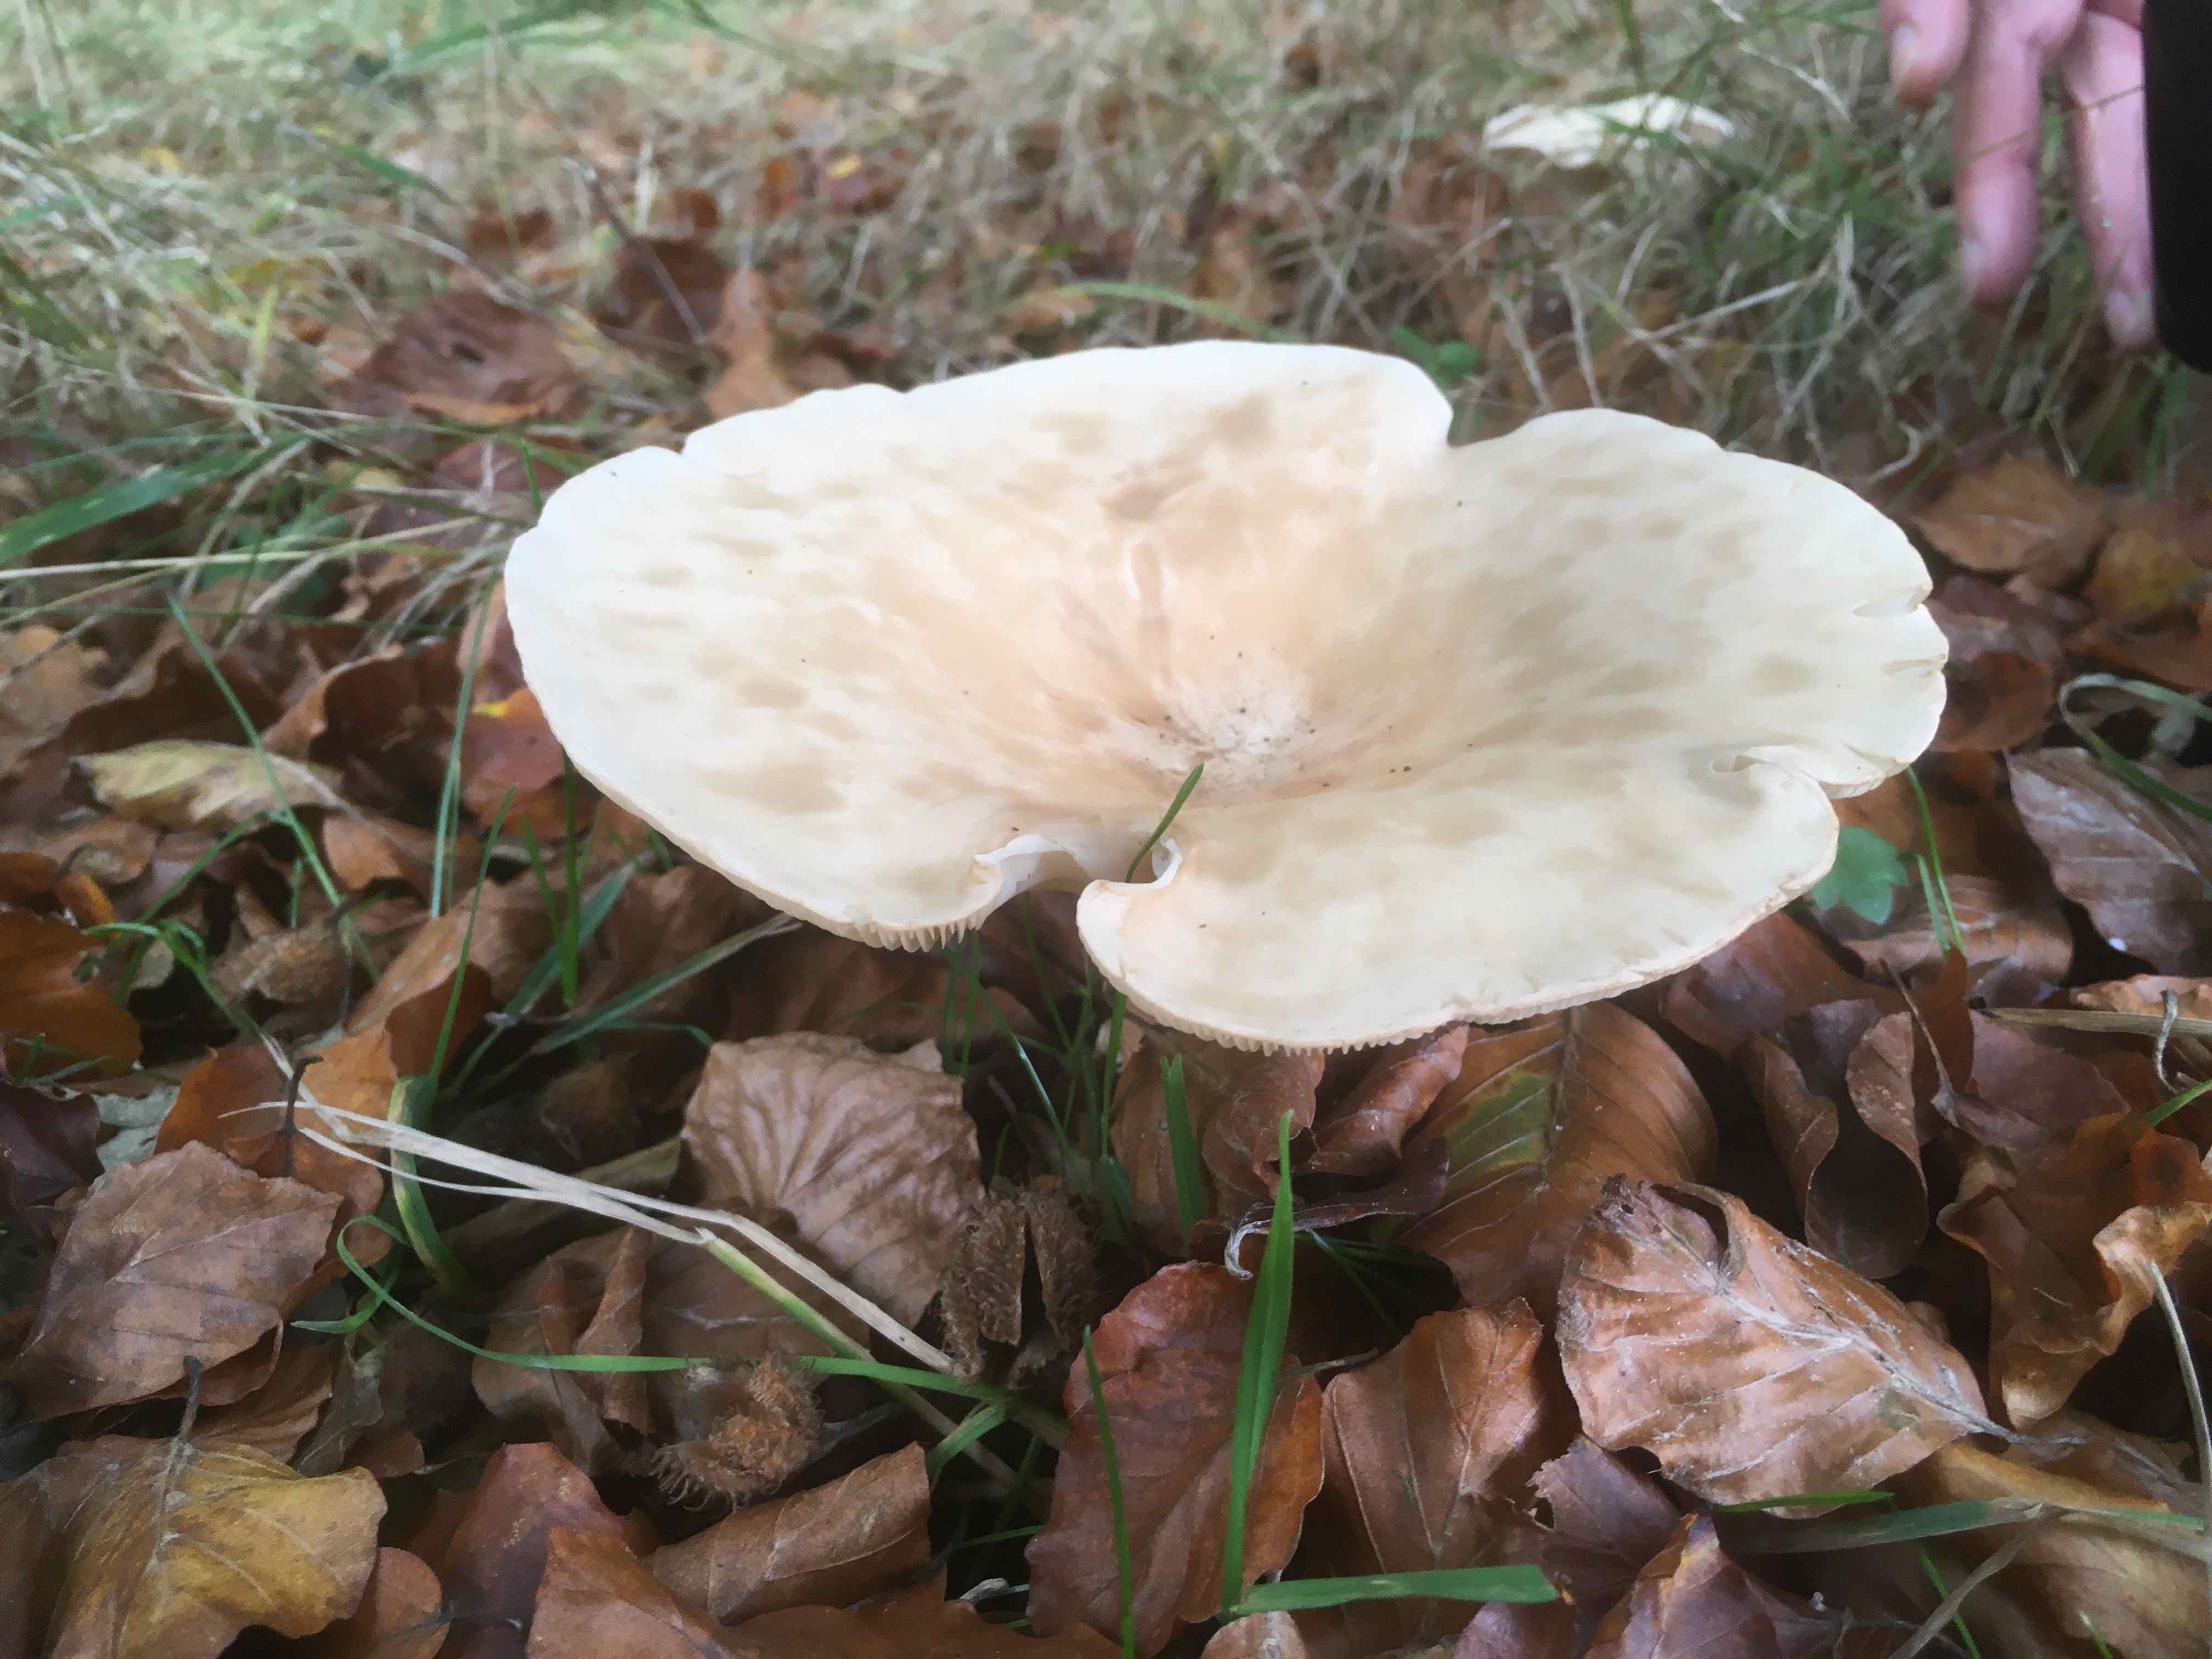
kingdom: Fungi
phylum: Basidiomycota
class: Agaricomycetes
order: Agaricales
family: Tricholomataceae
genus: Infundibulicybe
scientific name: Infundibulicybe geotropa
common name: stor tragthat
